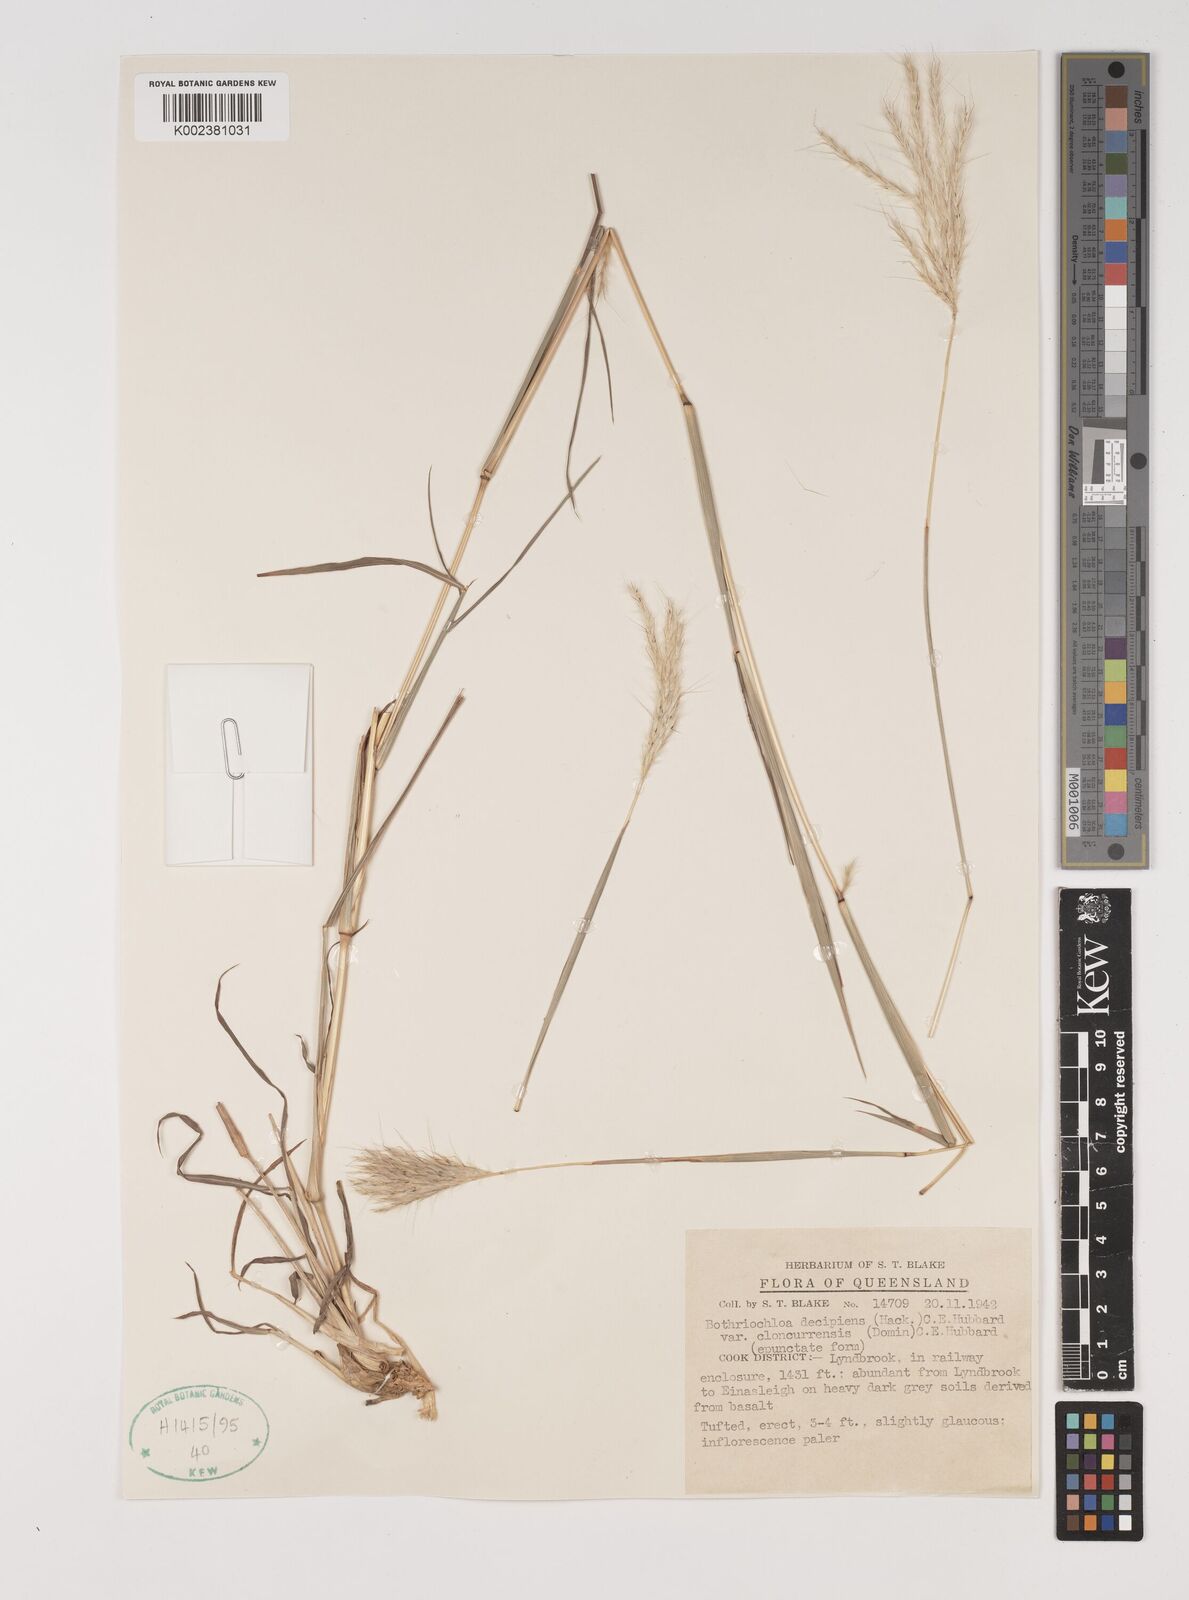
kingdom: Plantae
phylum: Tracheophyta
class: Liliopsida
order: Poales
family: Poaceae
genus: Bothriochloa
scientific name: Bothriochloa decipiens
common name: Pitted-bluegrass
